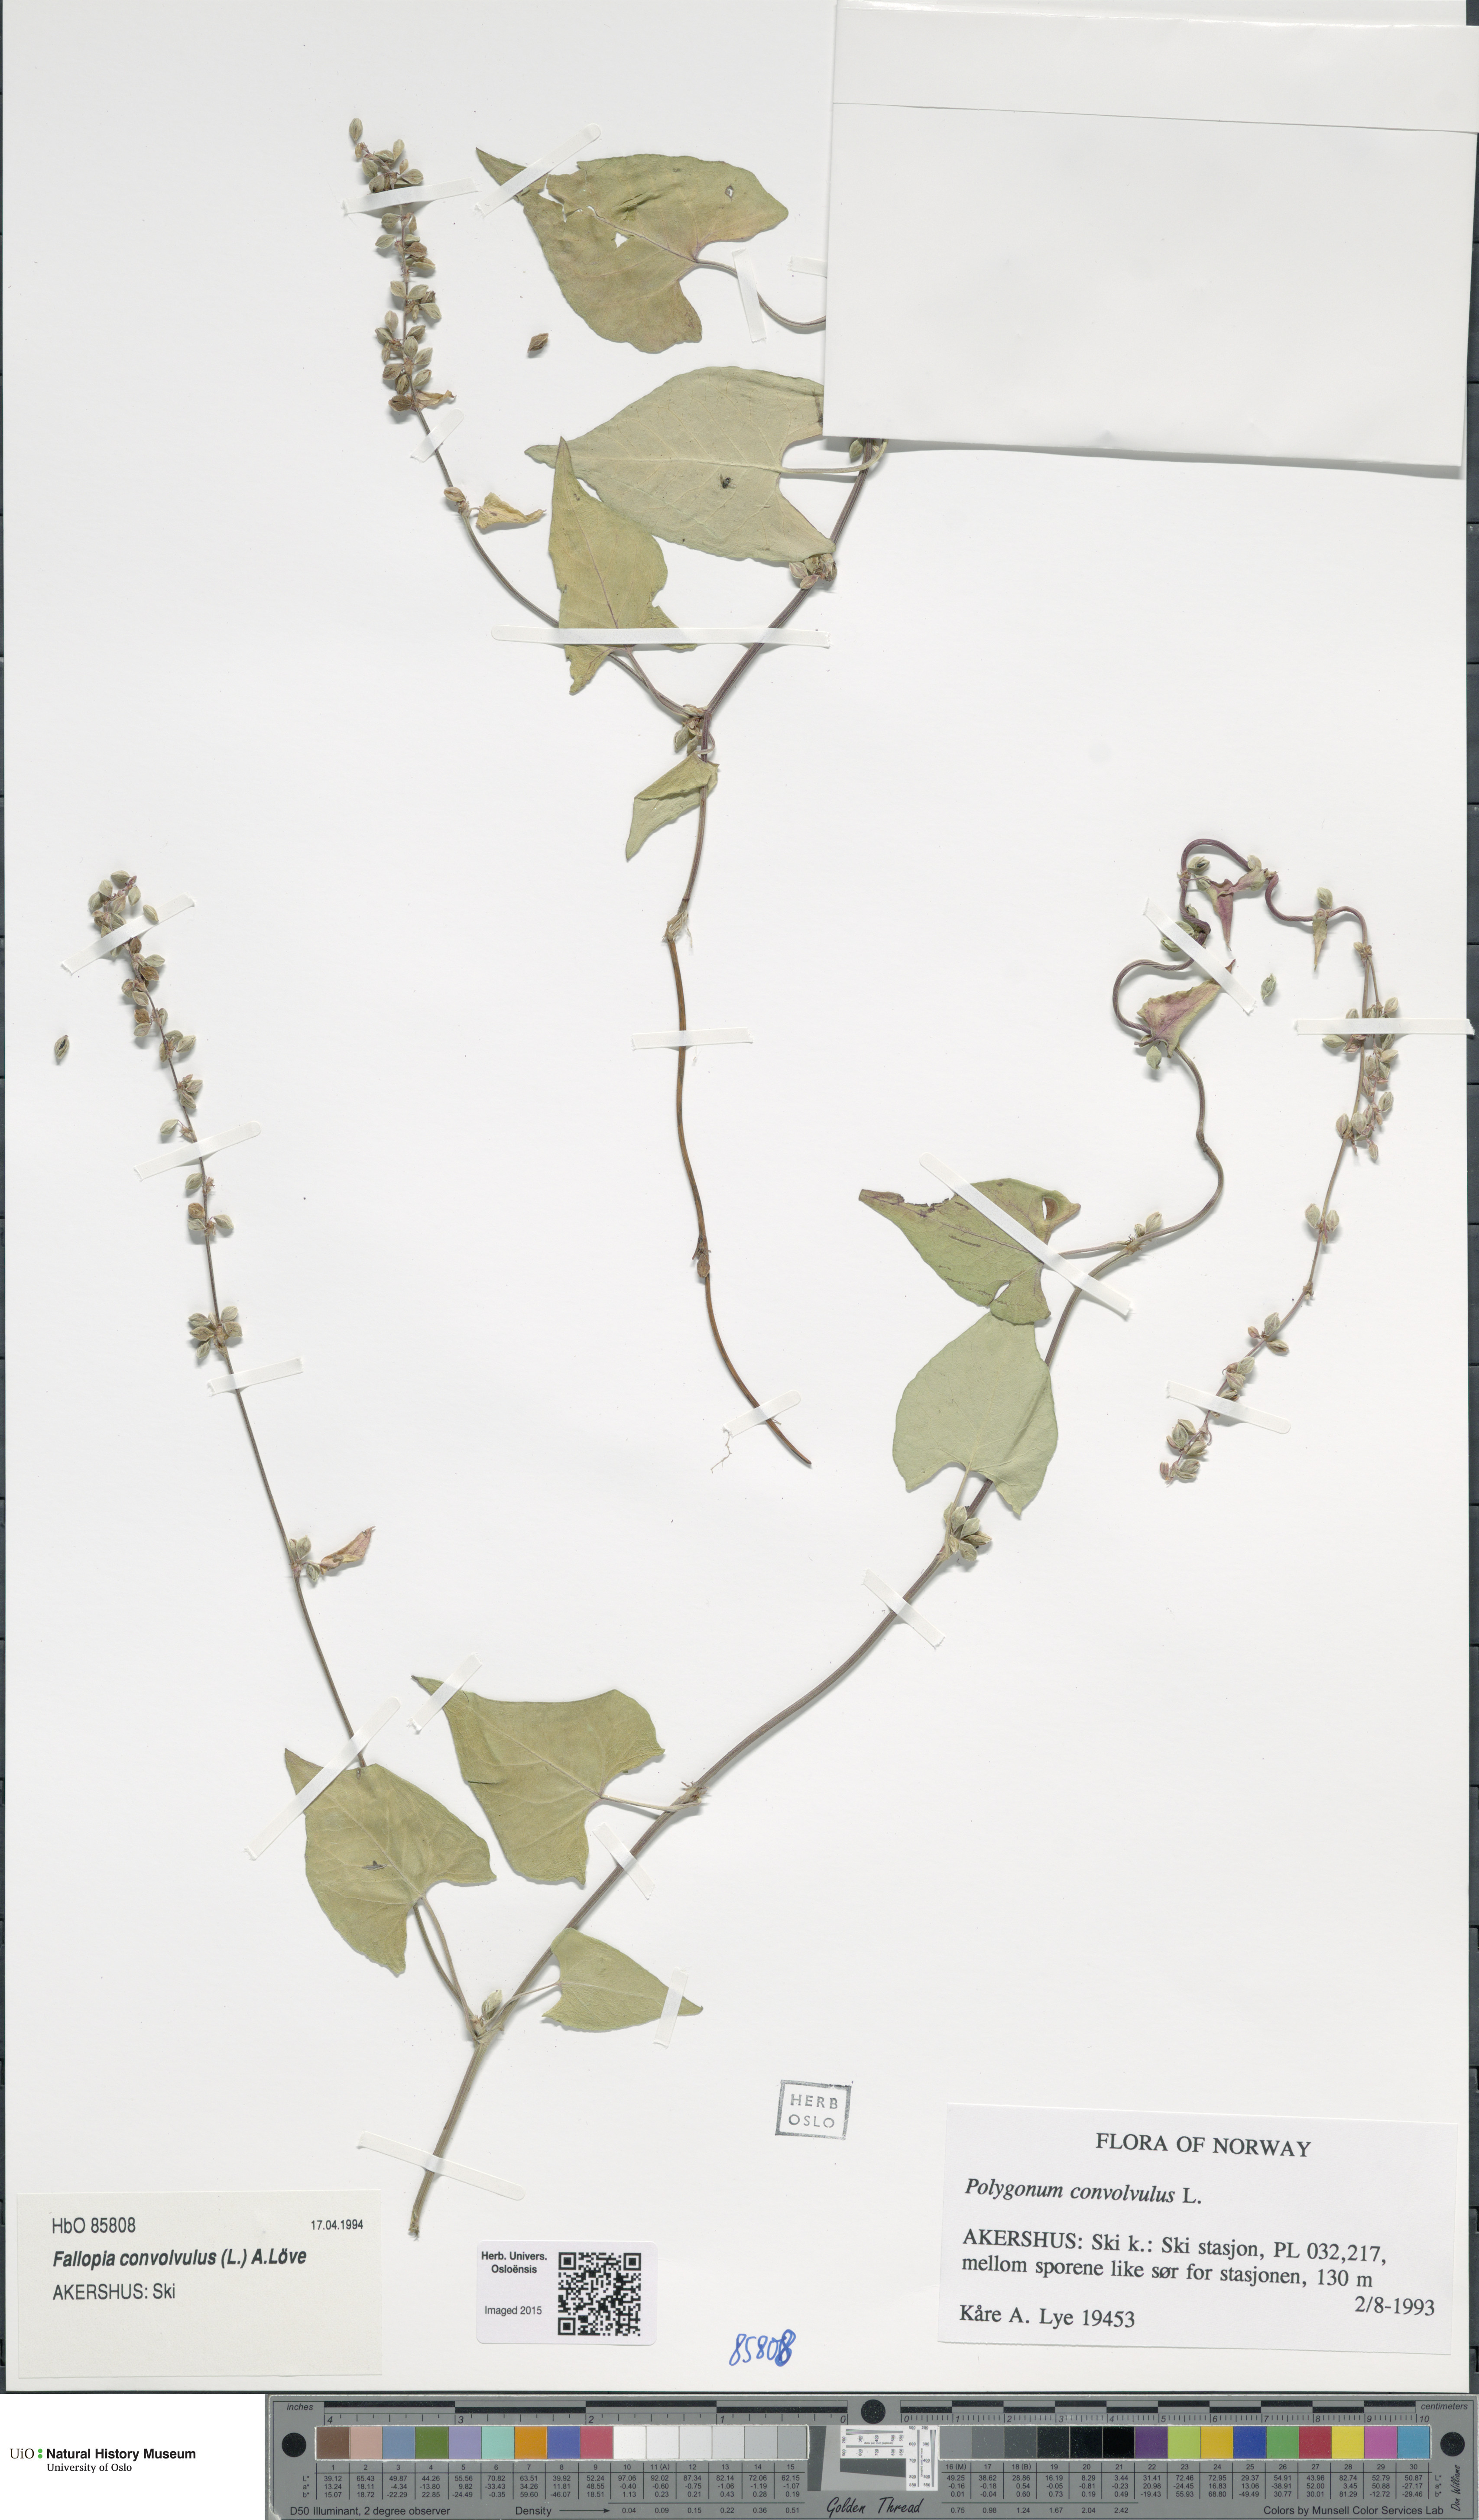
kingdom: Plantae
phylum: Tracheophyta
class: Magnoliopsida
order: Caryophyllales
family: Polygonaceae
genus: Fallopia
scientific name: Fallopia convolvulus
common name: Black bindweed
